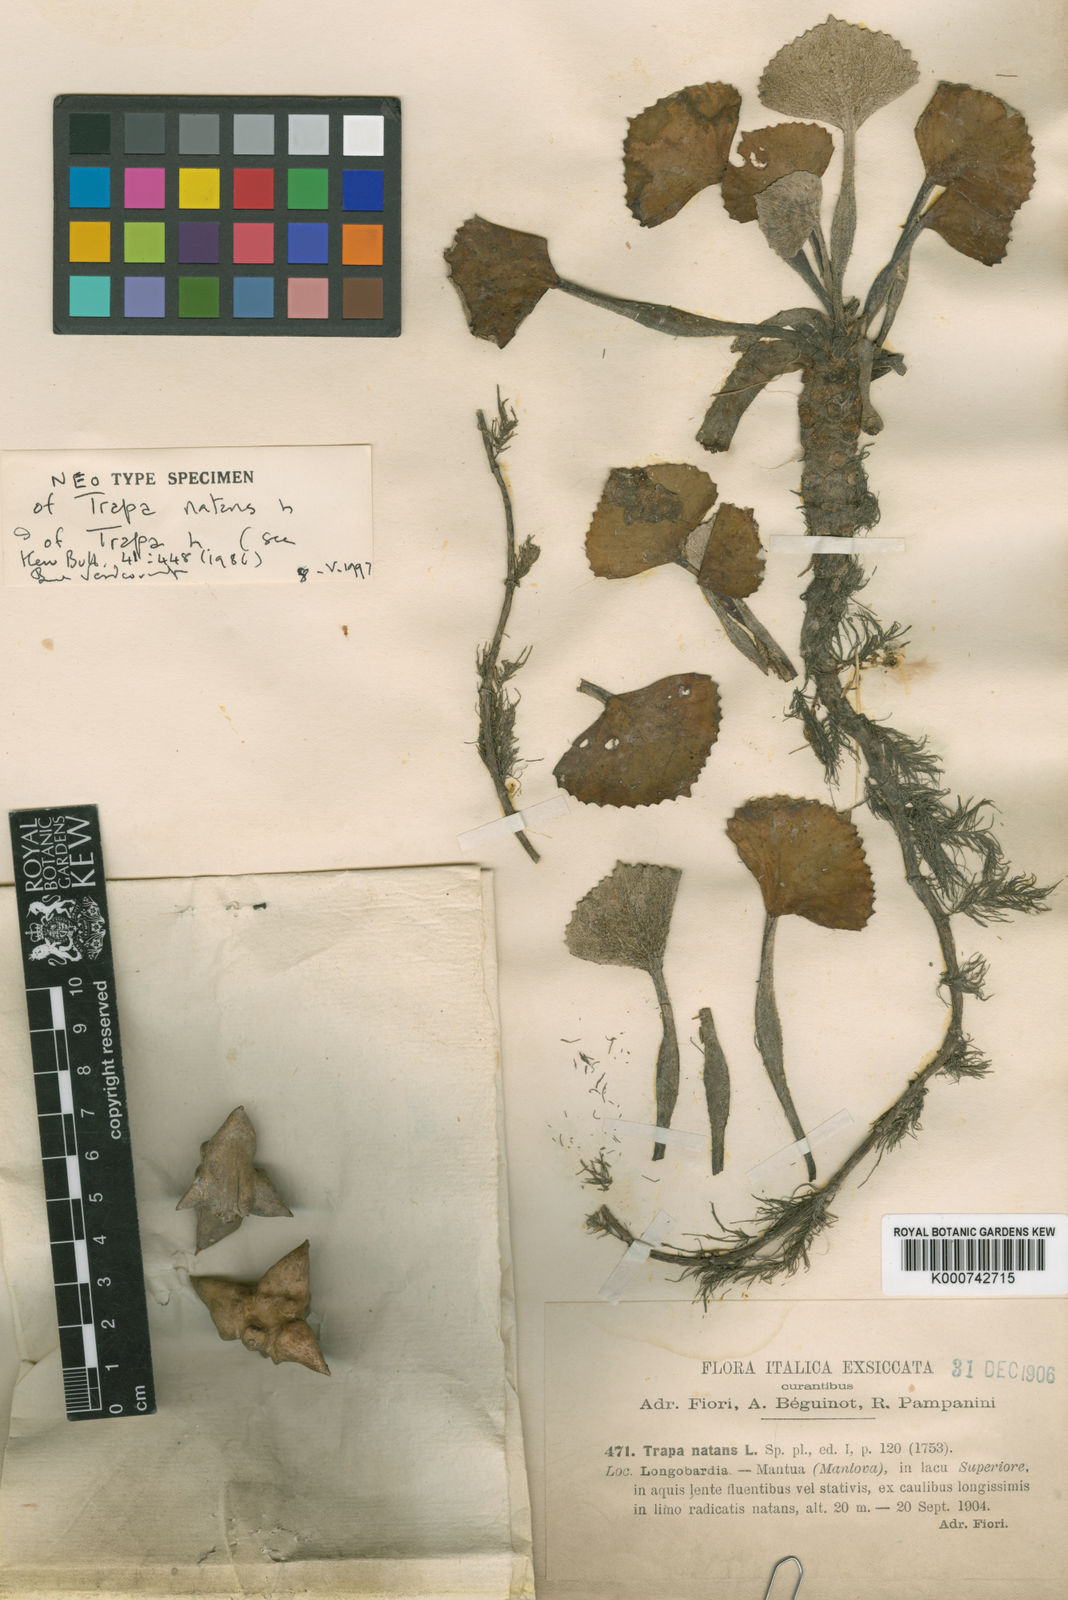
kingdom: Plantae
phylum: Tracheophyta
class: Magnoliopsida
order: Myrtales
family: Lythraceae
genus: Trapa
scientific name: Trapa natans
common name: Water chestnut
